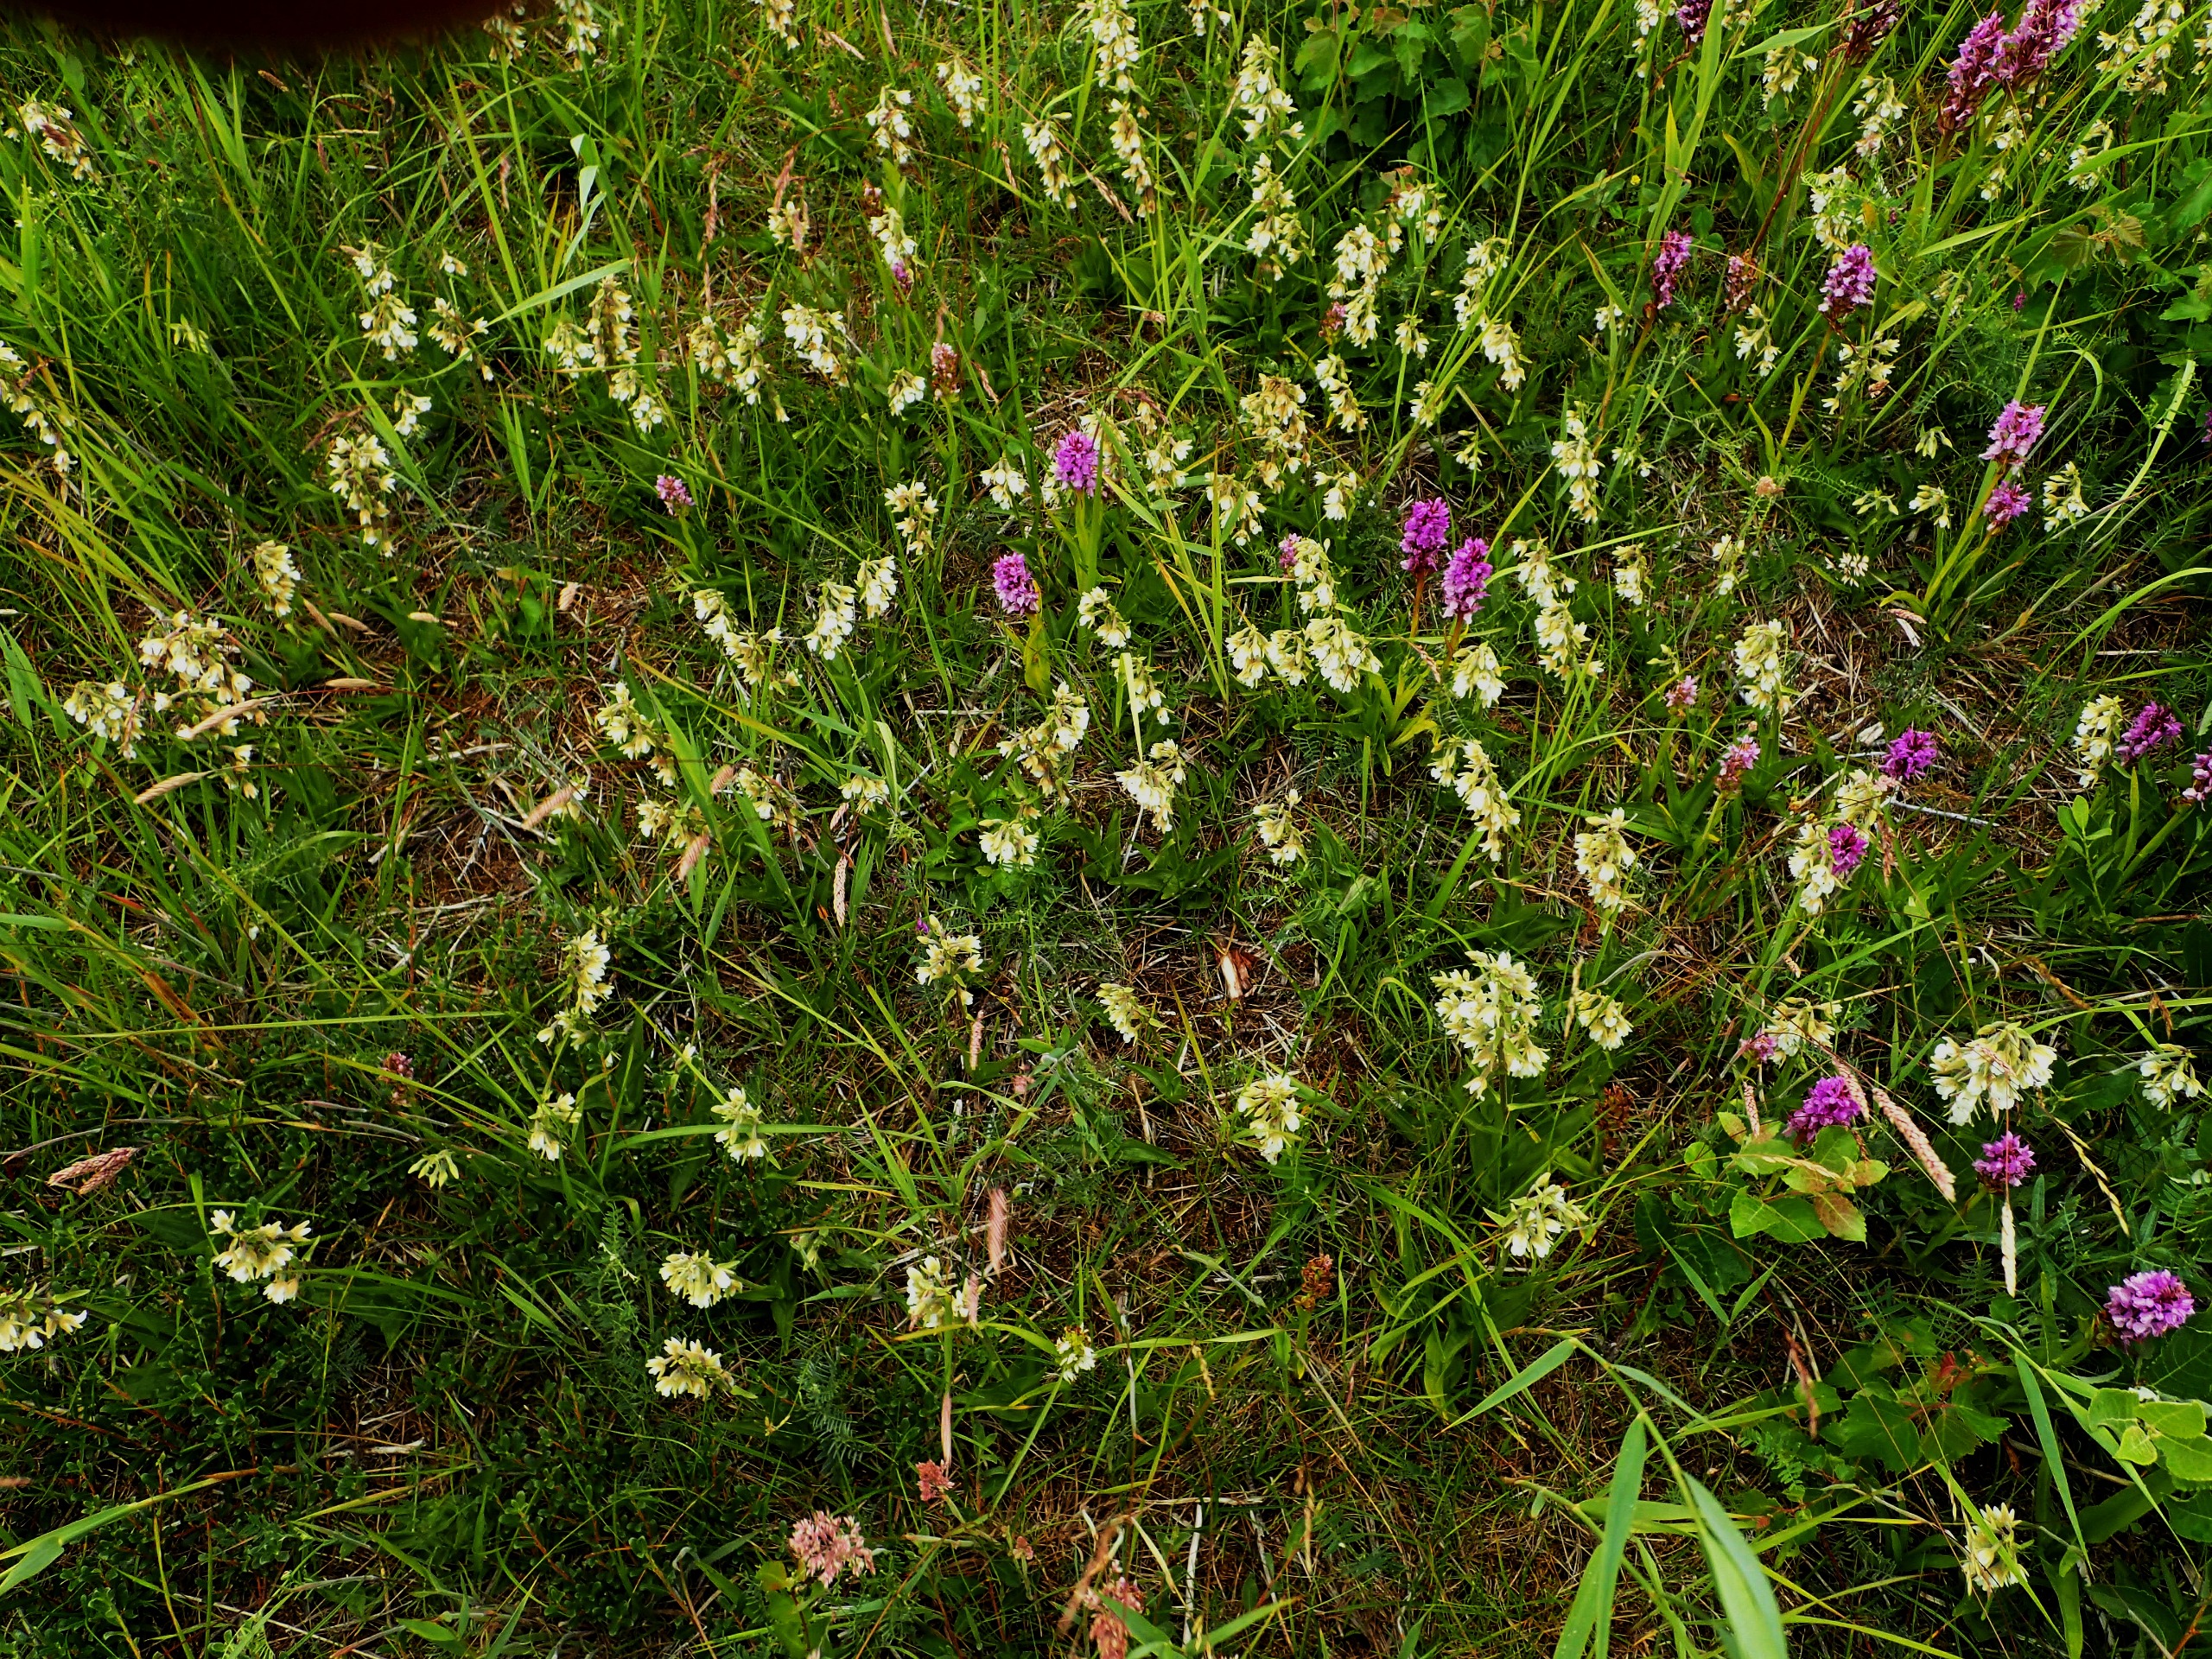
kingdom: Plantae
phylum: Tracheophyta
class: Liliopsida
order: Asparagales
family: Orchidaceae
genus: Epipactis
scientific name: Epipactis palustris
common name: Sump-hullæbe
